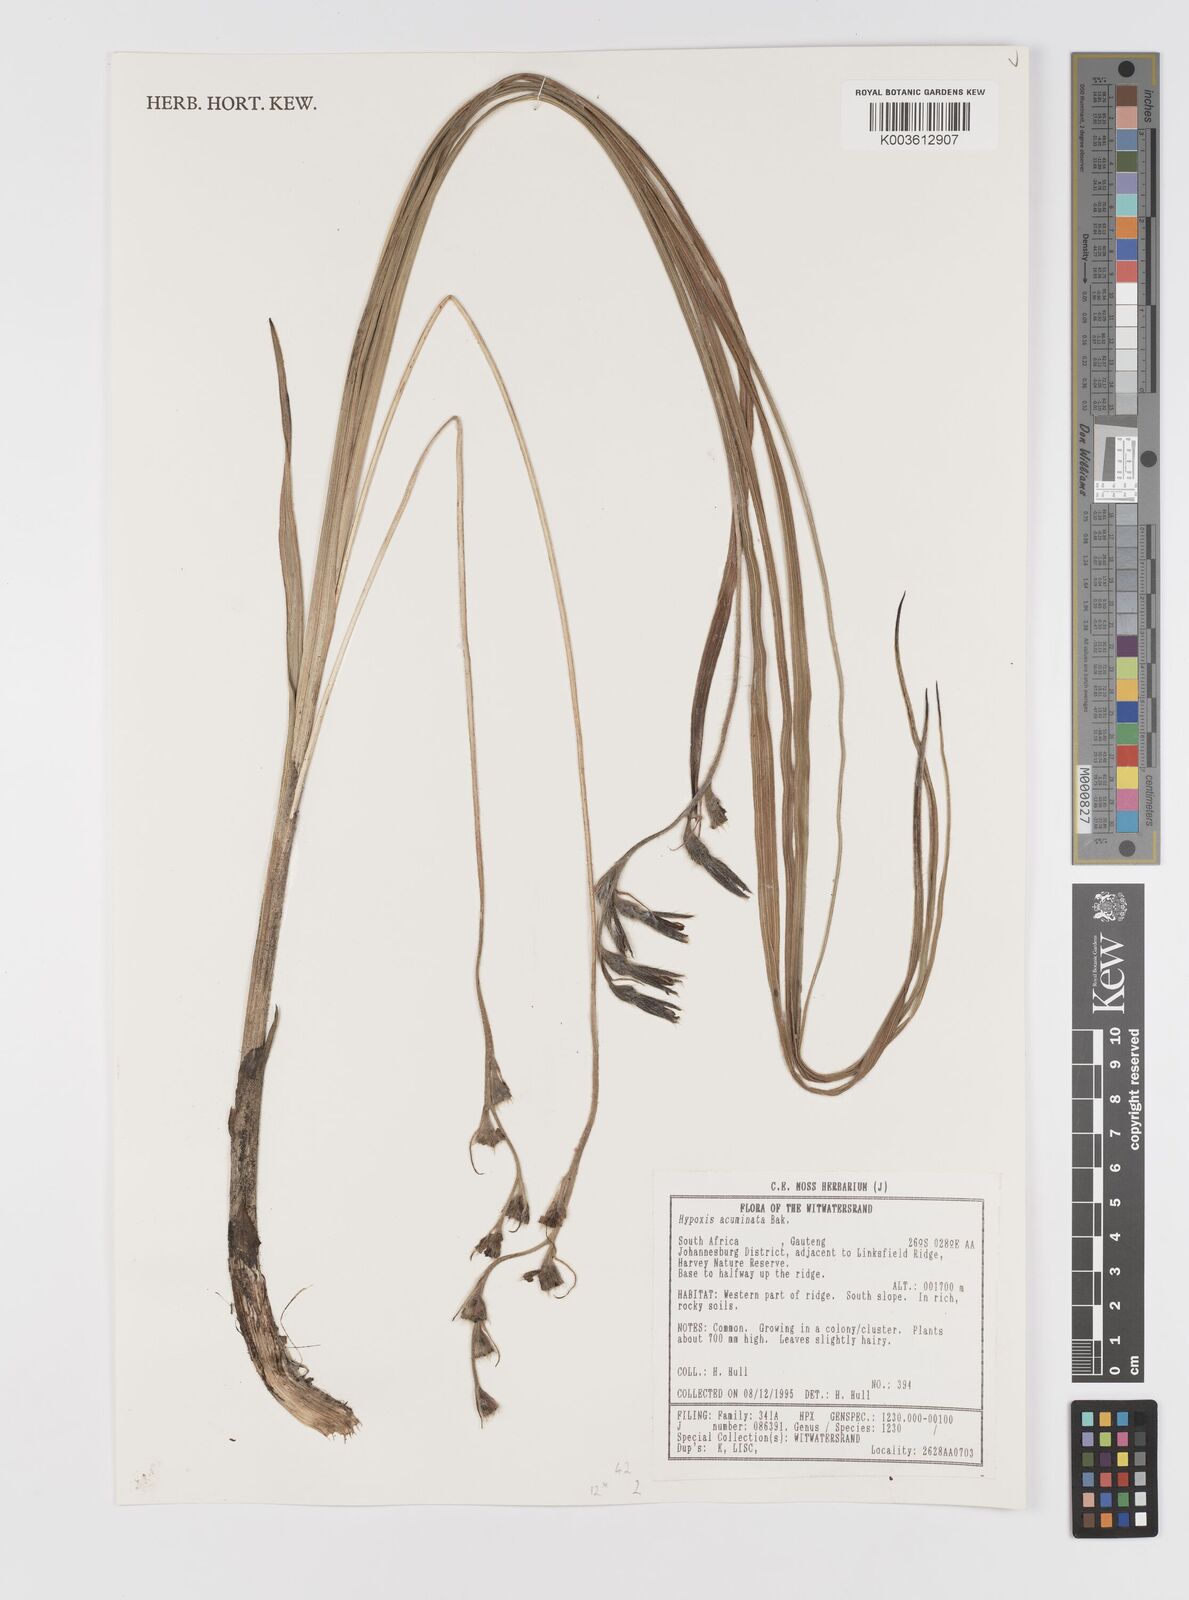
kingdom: Plantae
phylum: Tracheophyta
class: Liliopsida
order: Asparagales
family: Hypoxidaceae
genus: Hypoxis
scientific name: Hypoxis acuminata
